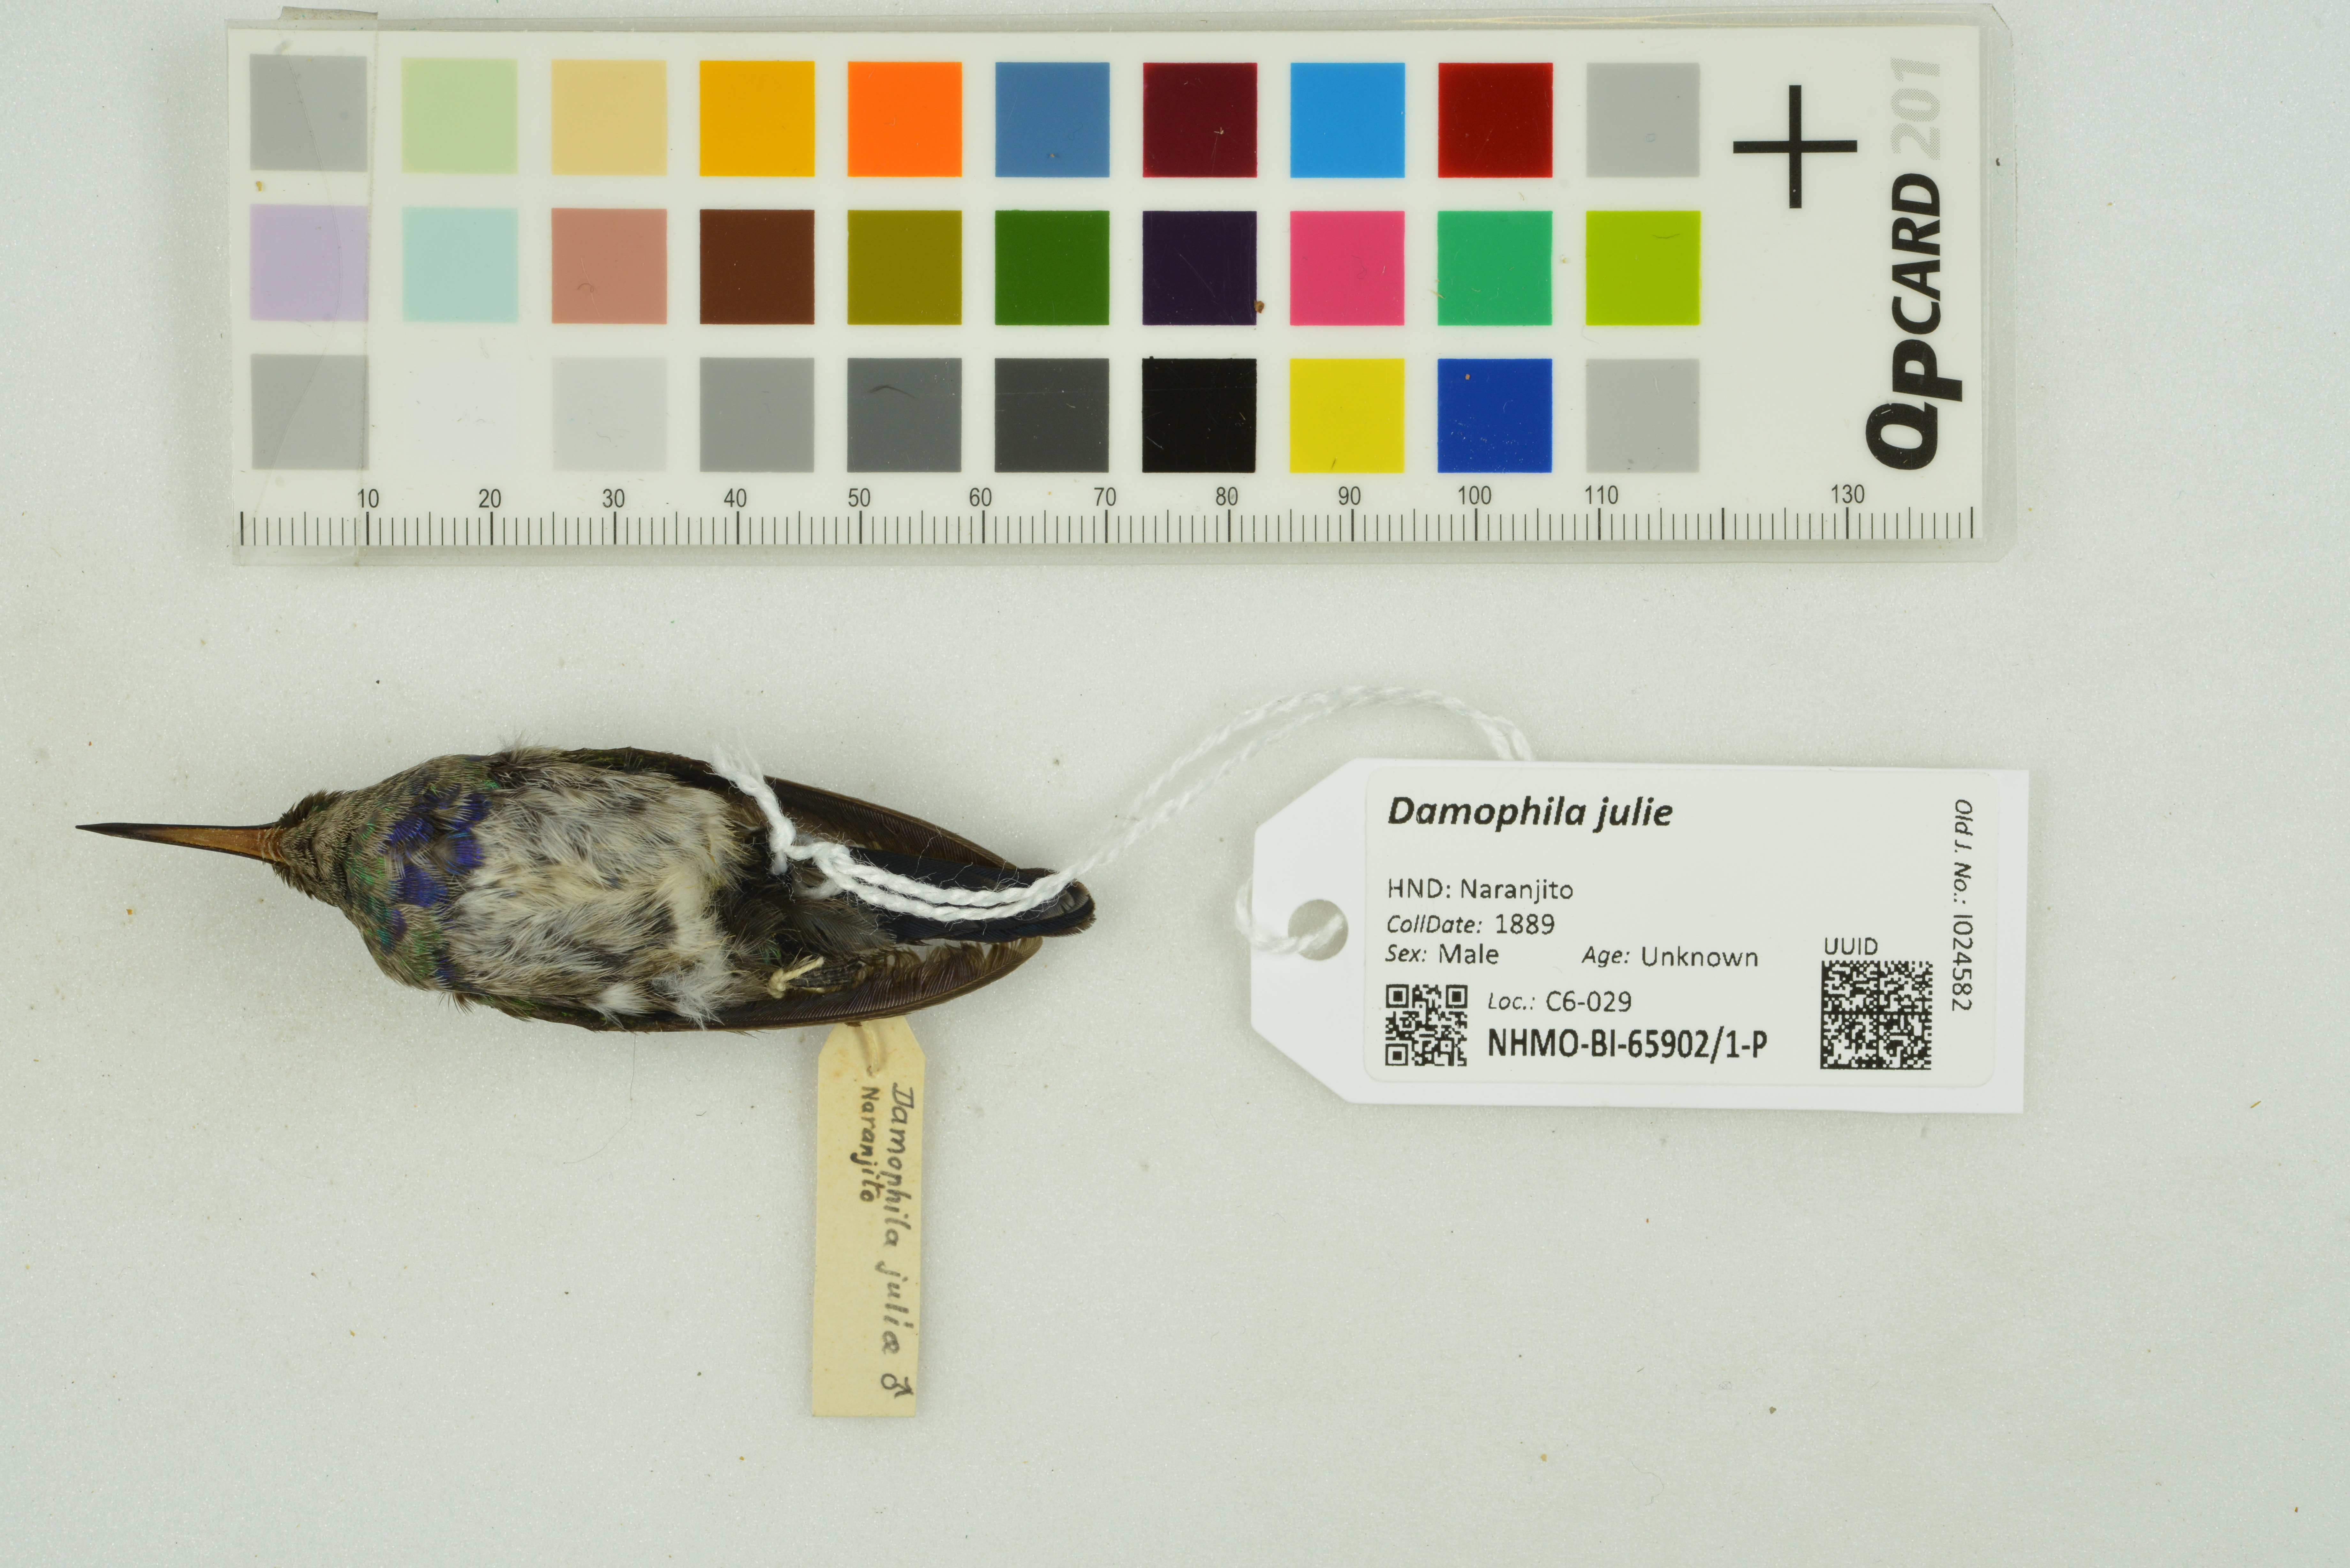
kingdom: Animalia
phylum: Chordata
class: Aves
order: Apodiformes
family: Trochilidae
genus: Chlorestes
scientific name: Chlorestes julie
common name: Violet-bellied hummingbird
